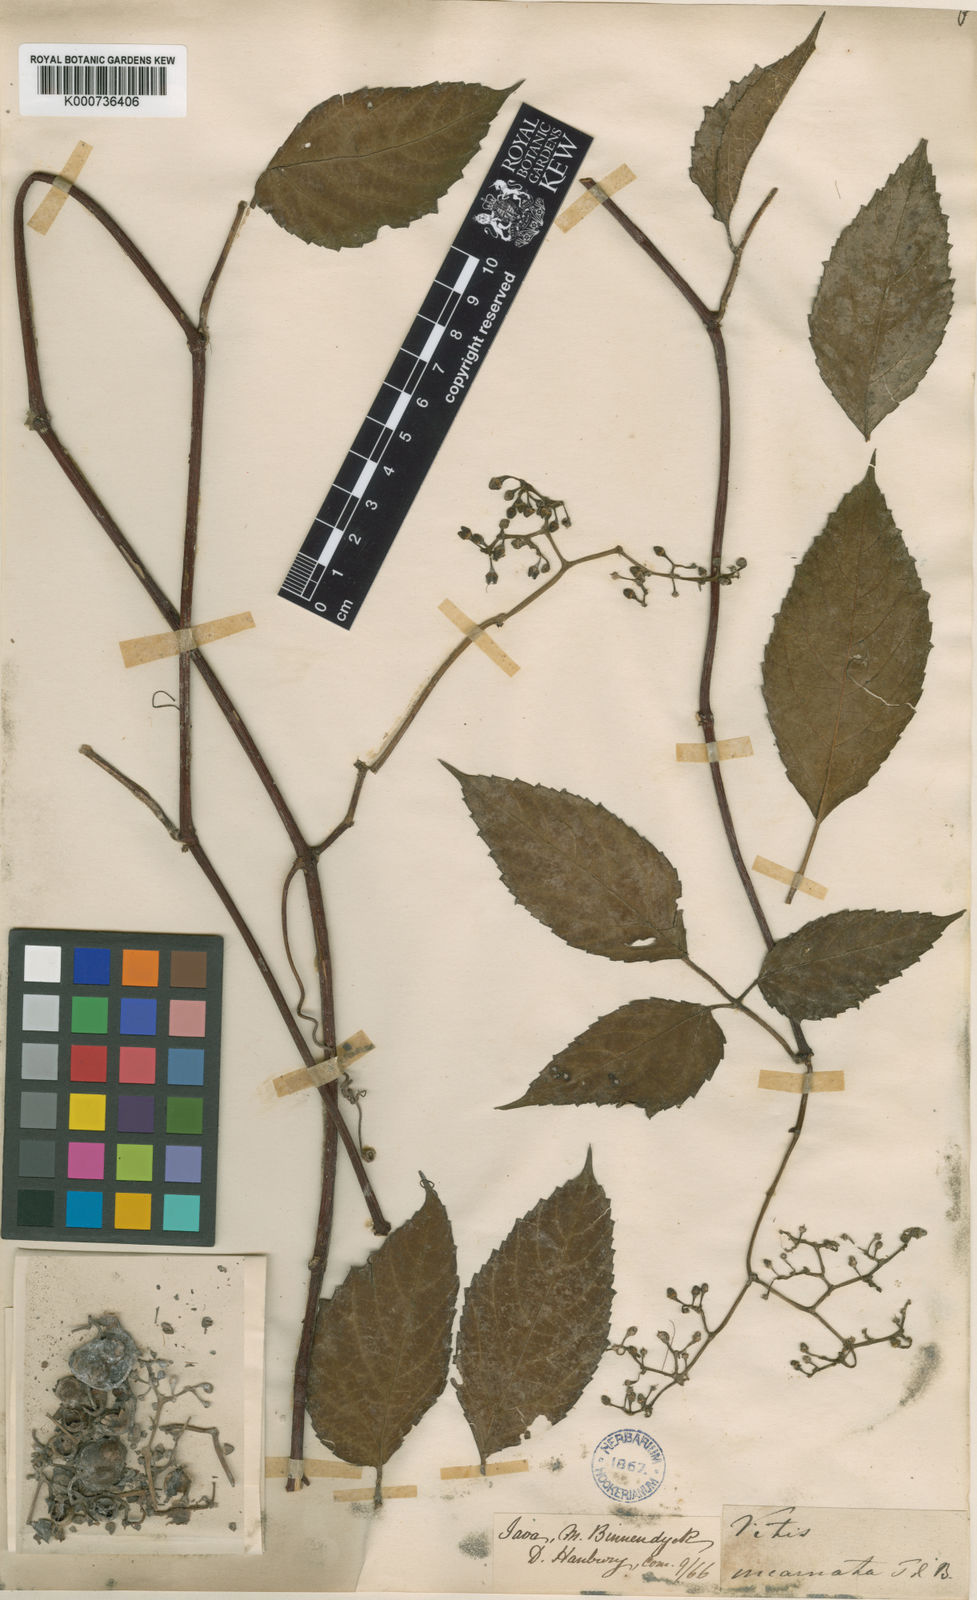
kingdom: Plantae
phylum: Tracheophyta
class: Magnoliopsida
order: Vitales
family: Vitaceae
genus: Cayratia
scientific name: Cayratia mollissima
